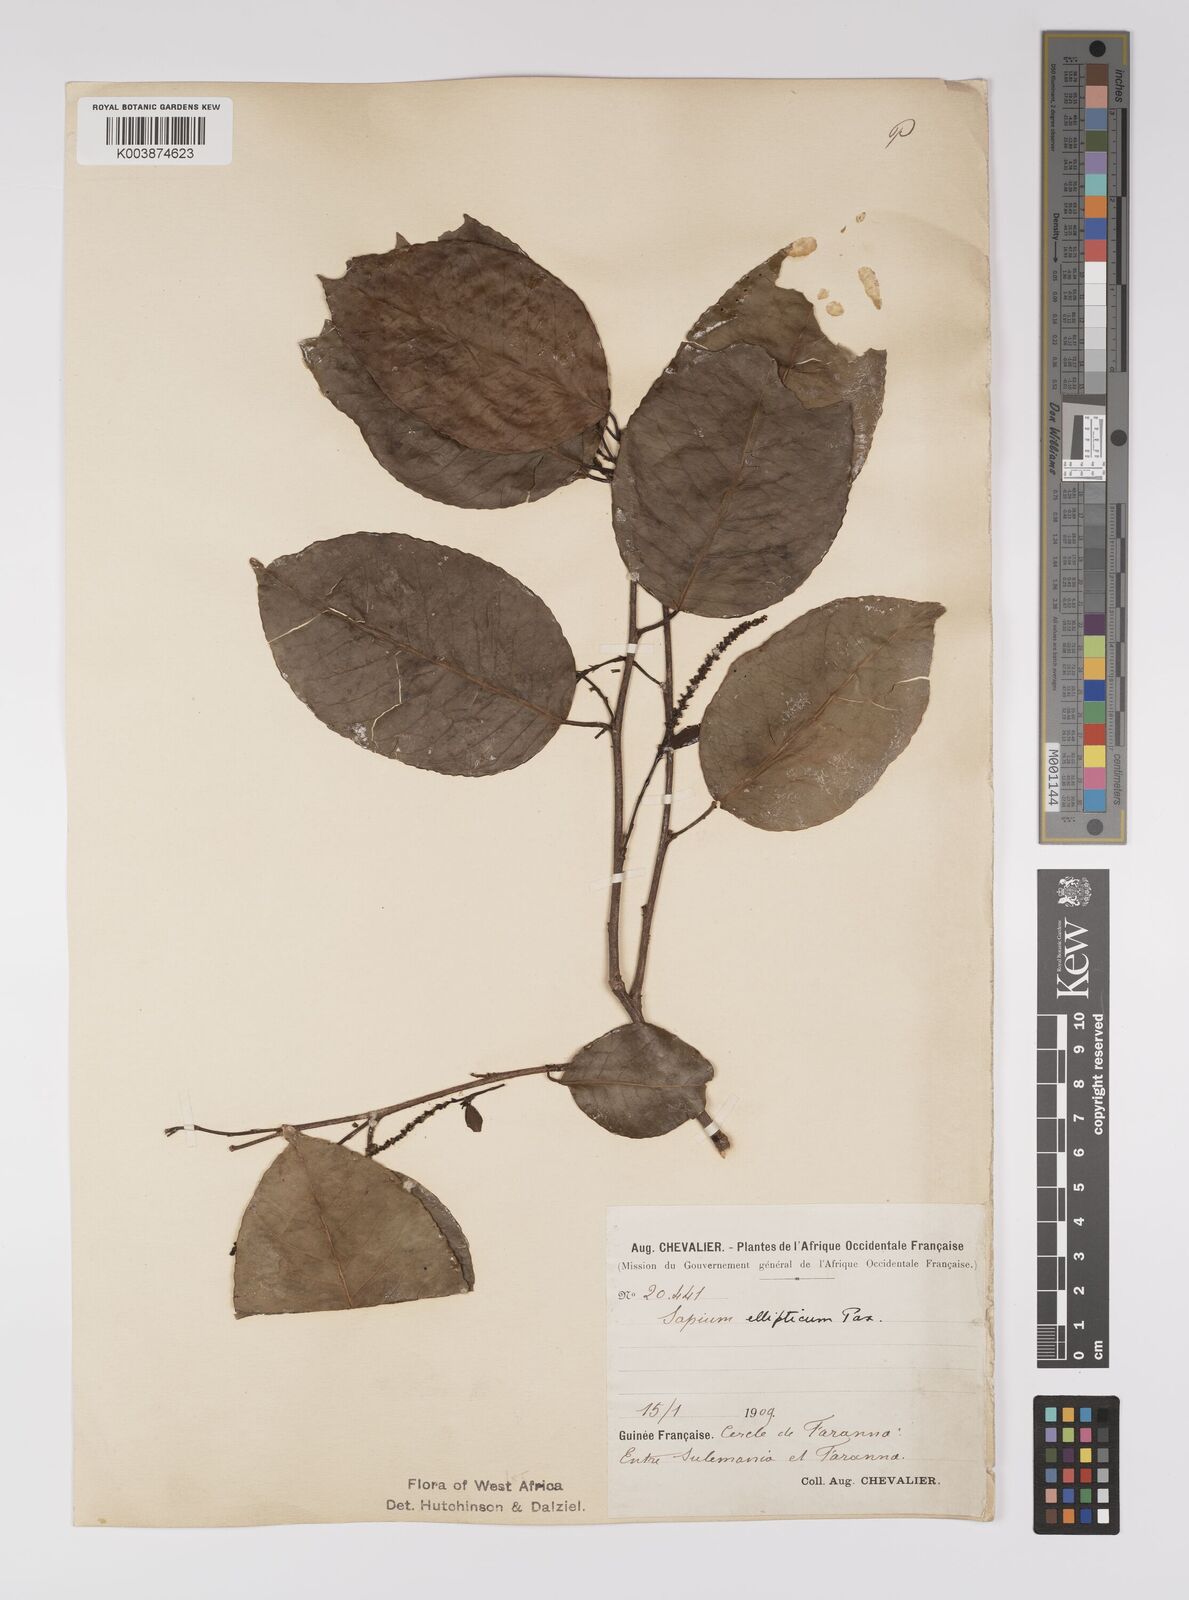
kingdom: Plantae
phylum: Tracheophyta
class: Magnoliopsida
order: Malpighiales
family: Euphorbiaceae
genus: Shirakiopsis
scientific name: Shirakiopsis elliptica
